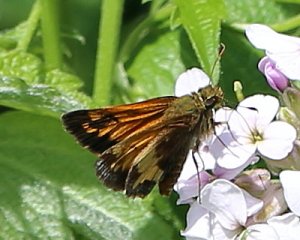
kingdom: Animalia
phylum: Arthropoda
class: Insecta
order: Lepidoptera
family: Hesperiidae
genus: Lon
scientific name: Lon hobomok
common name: Hobomok Skipper
